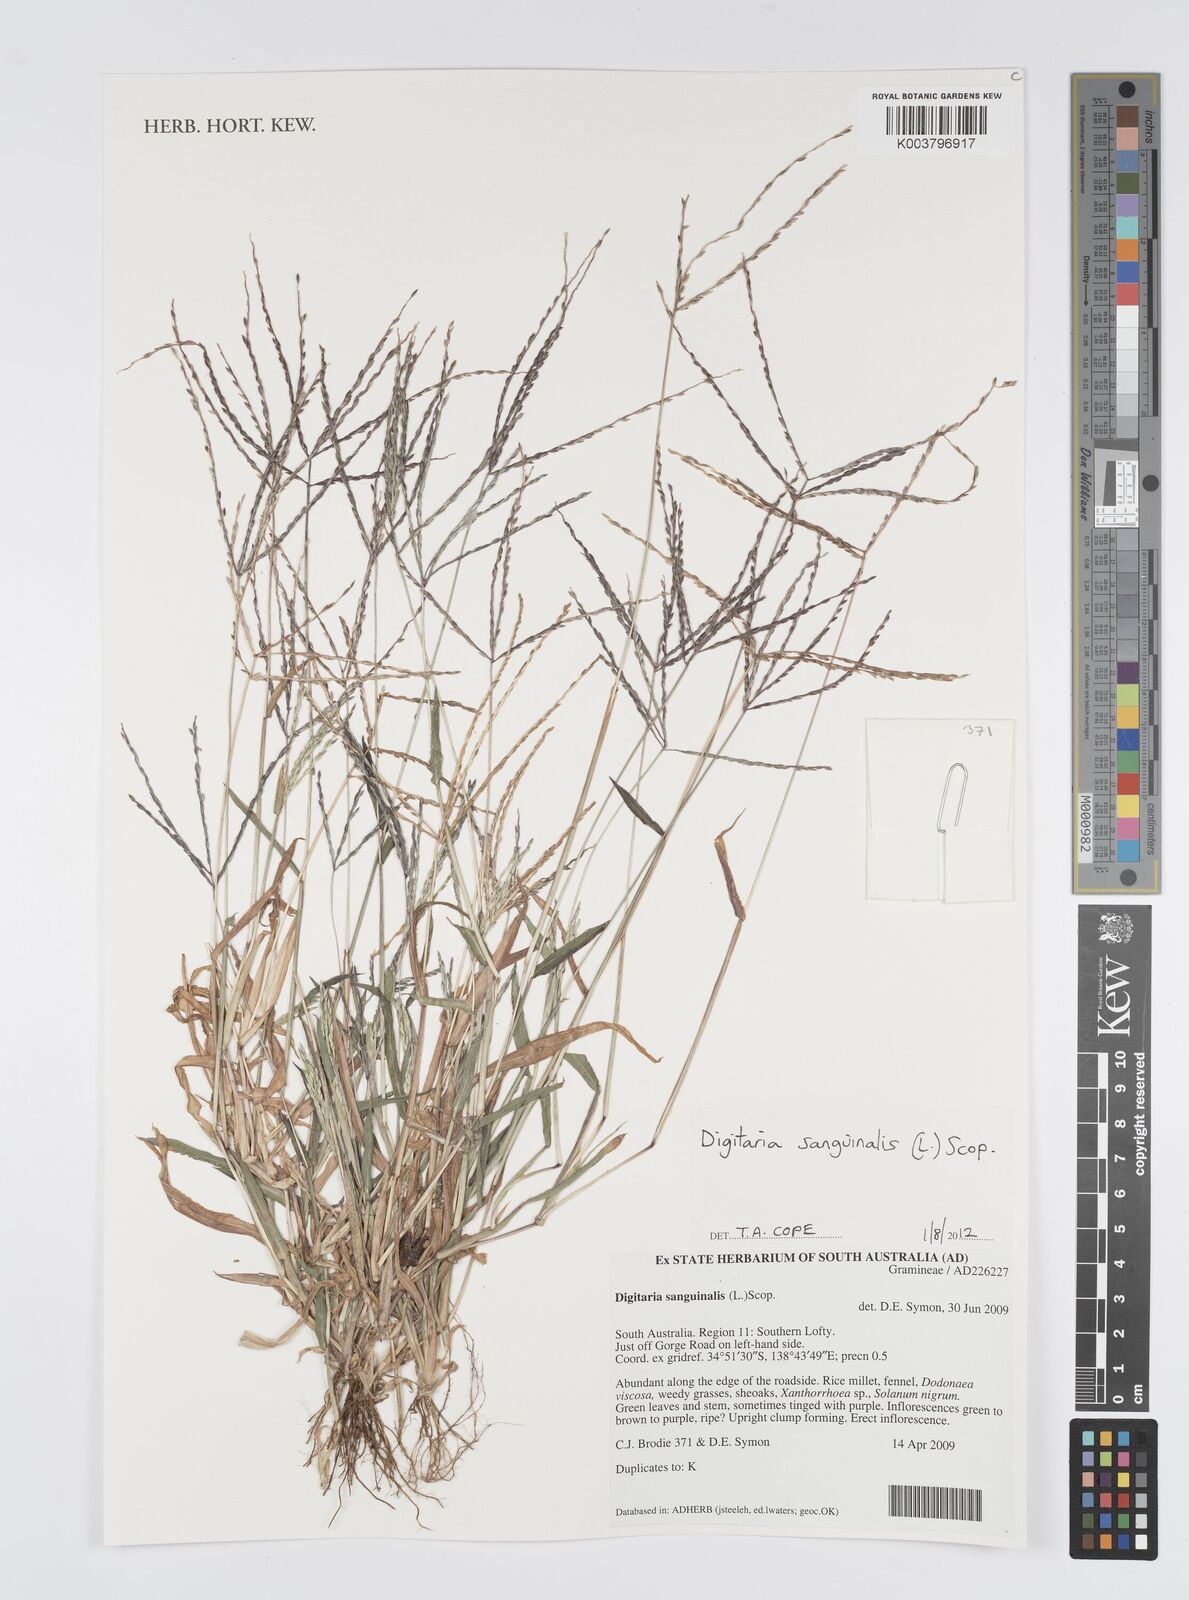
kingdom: Plantae
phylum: Tracheophyta
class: Liliopsida
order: Poales
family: Poaceae
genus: Digitaria
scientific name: Digitaria sanguinalis
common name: Hairy crabgrass
